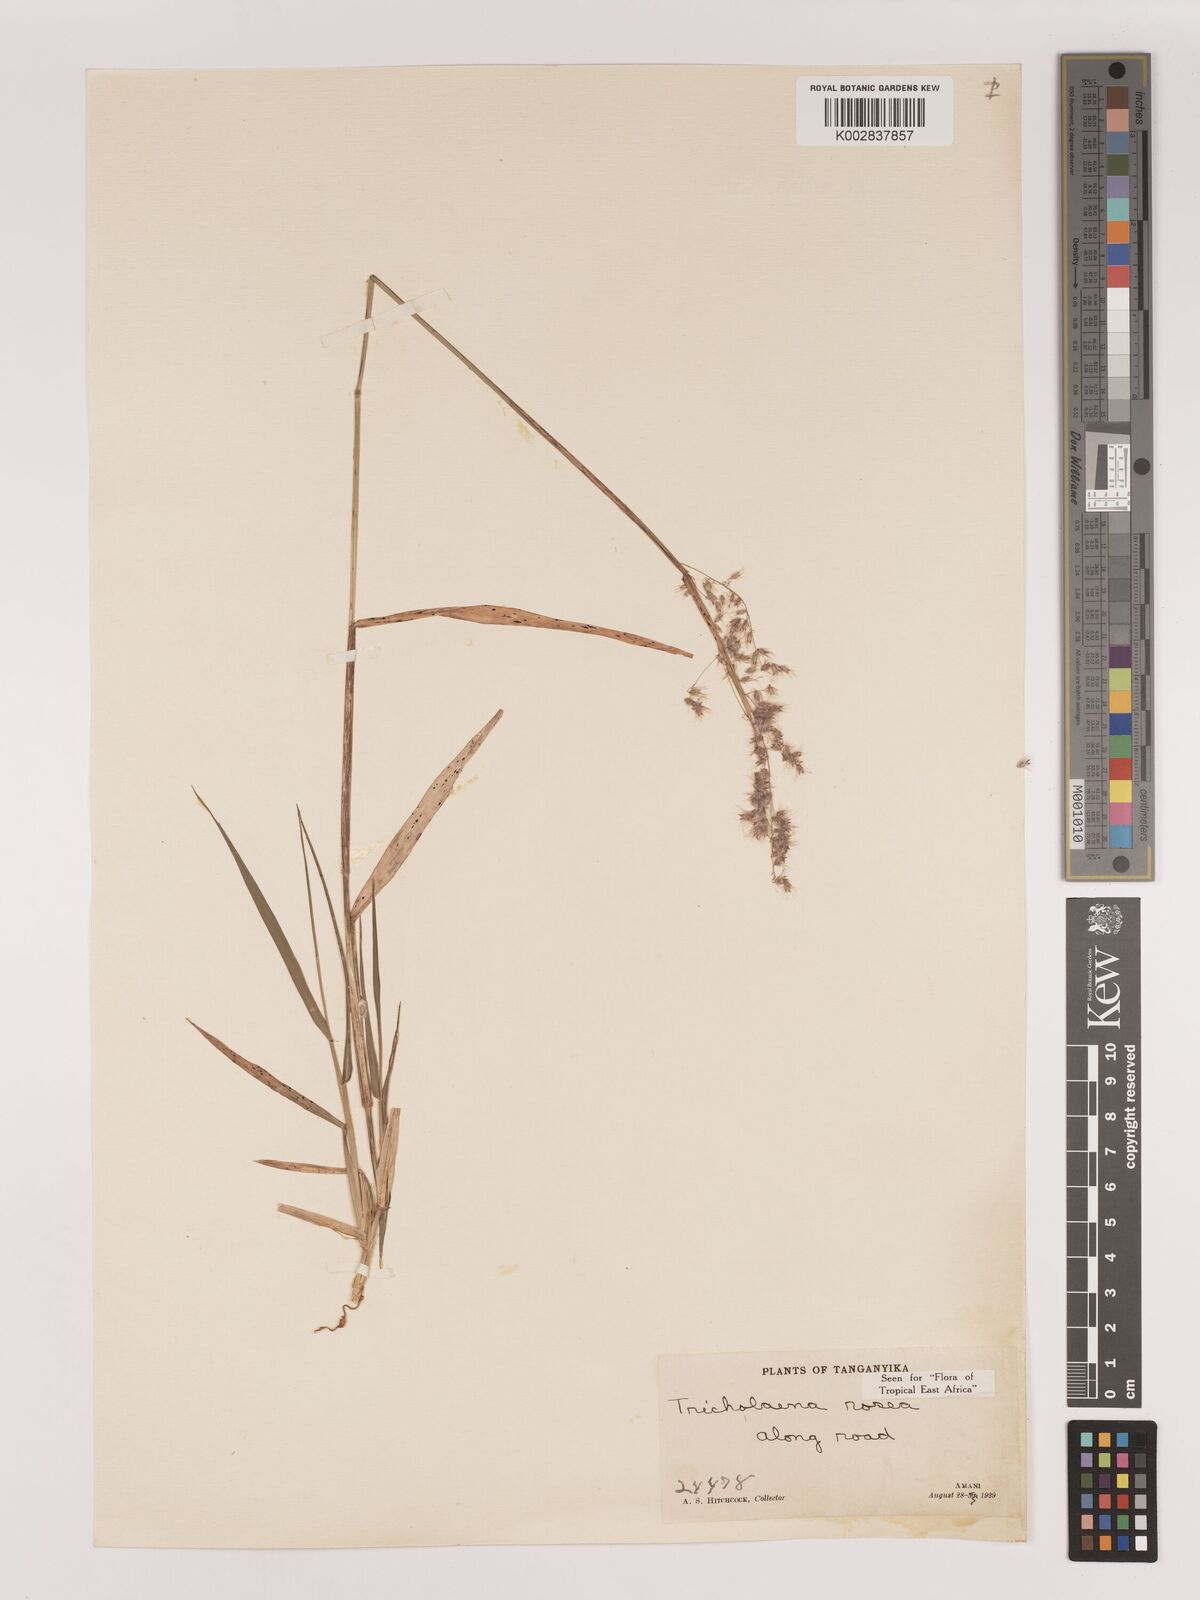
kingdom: Plantae
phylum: Tracheophyta
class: Liliopsida
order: Poales
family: Poaceae
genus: Melinis
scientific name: Melinis repens
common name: Rose natal grass
